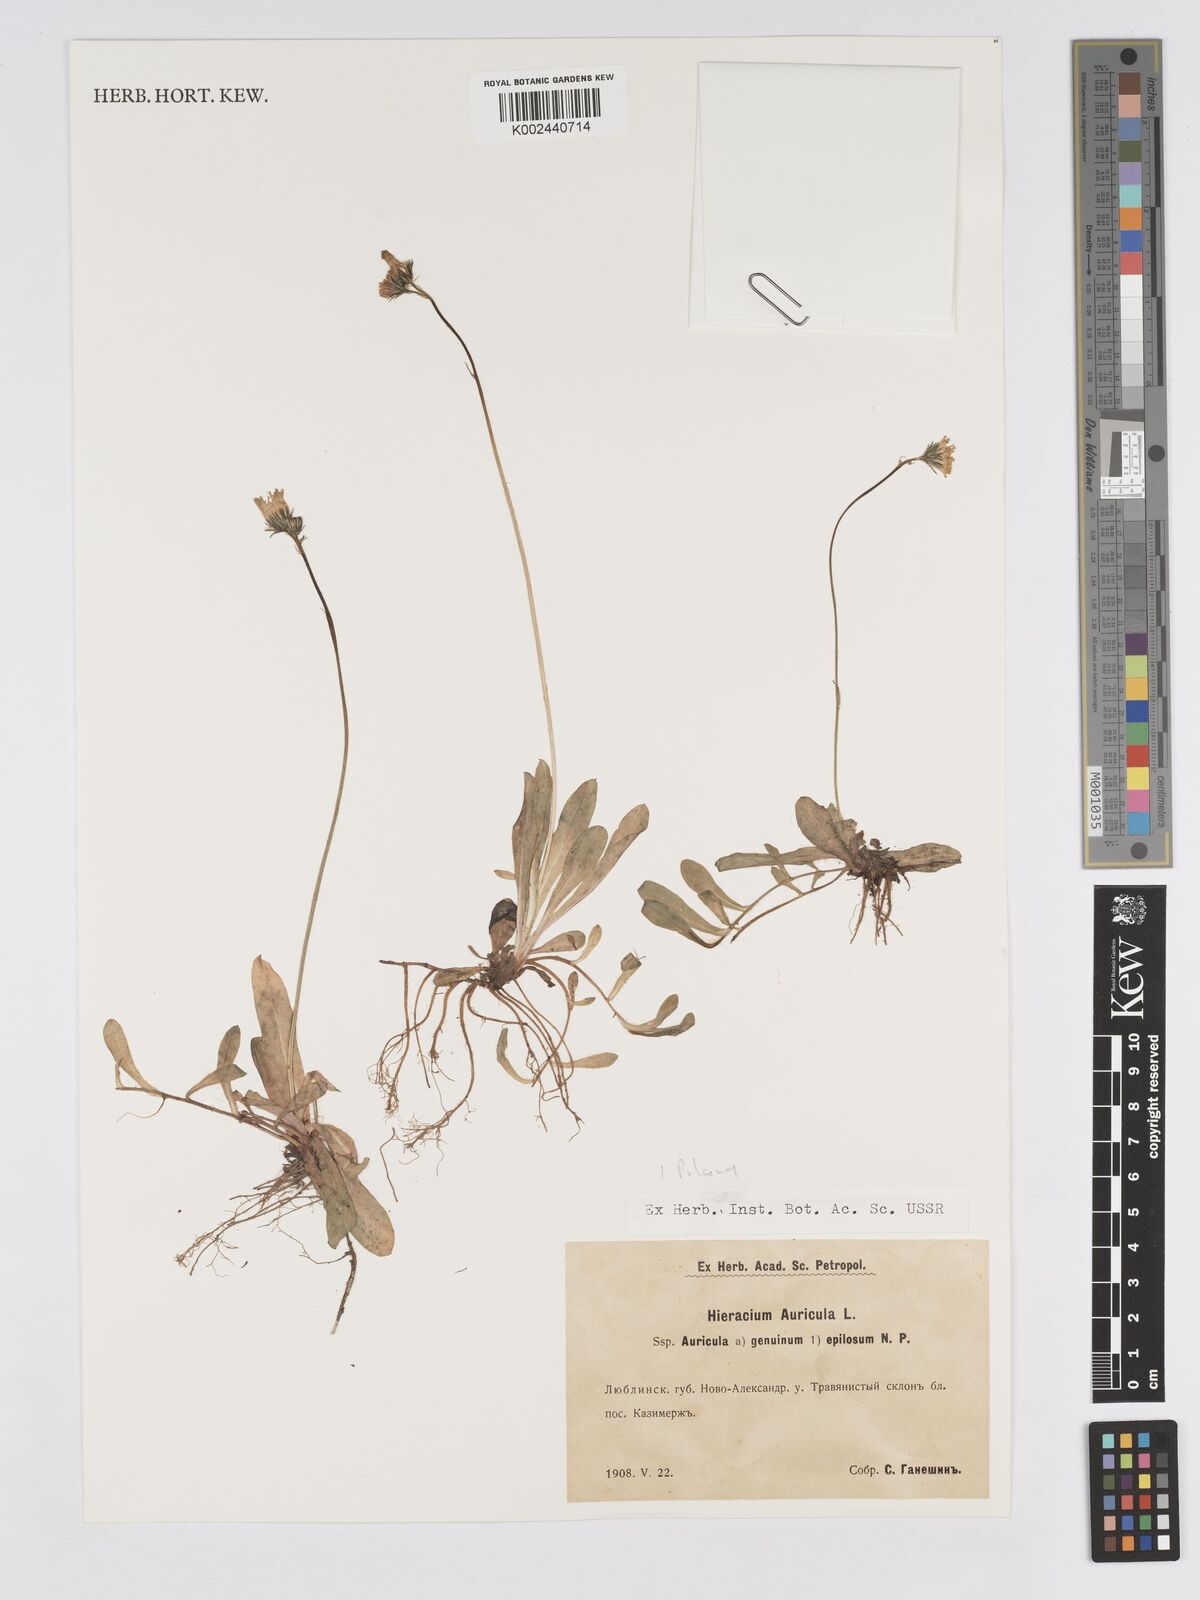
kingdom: Plantae
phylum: Tracheophyta
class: Magnoliopsida
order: Asterales
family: Asteraceae
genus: Pilosella
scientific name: Pilosella floribunda
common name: Glaucous hawkweed
